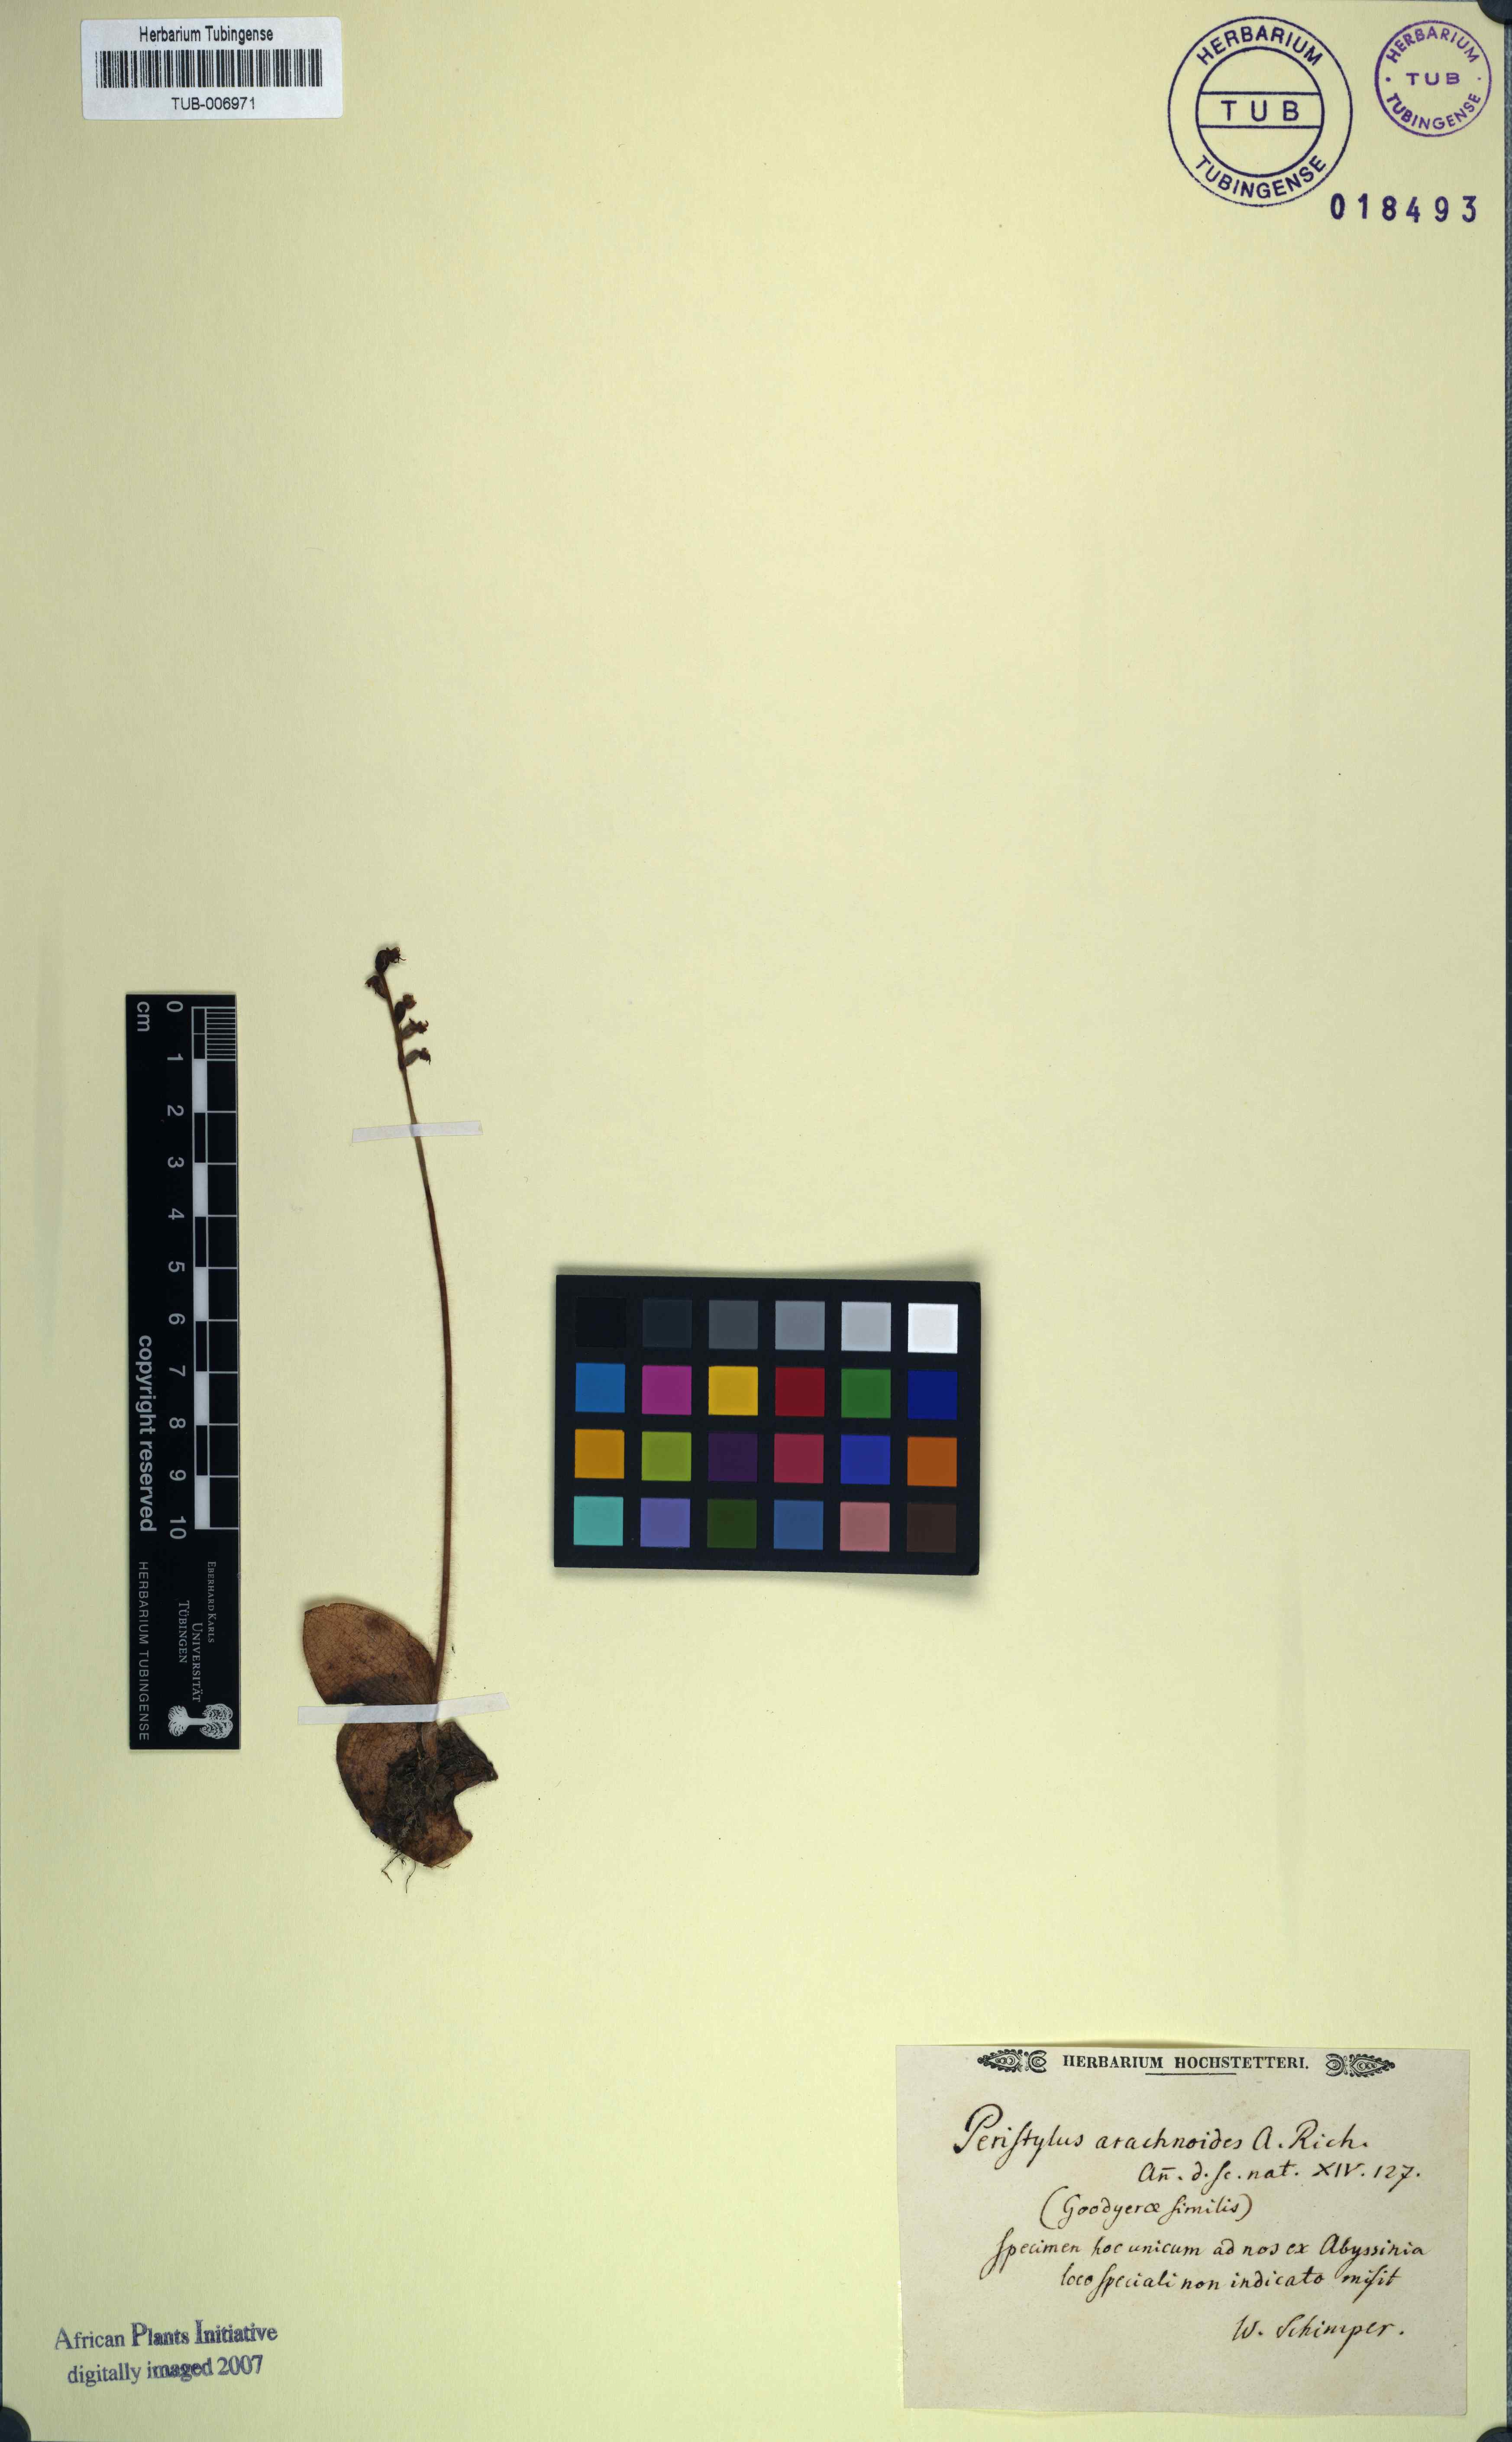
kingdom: Plantae
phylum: Tracheophyta
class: Liliopsida
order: Asparagales
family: Orchidaceae
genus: Holothrix
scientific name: Holothrix arachnoidea
